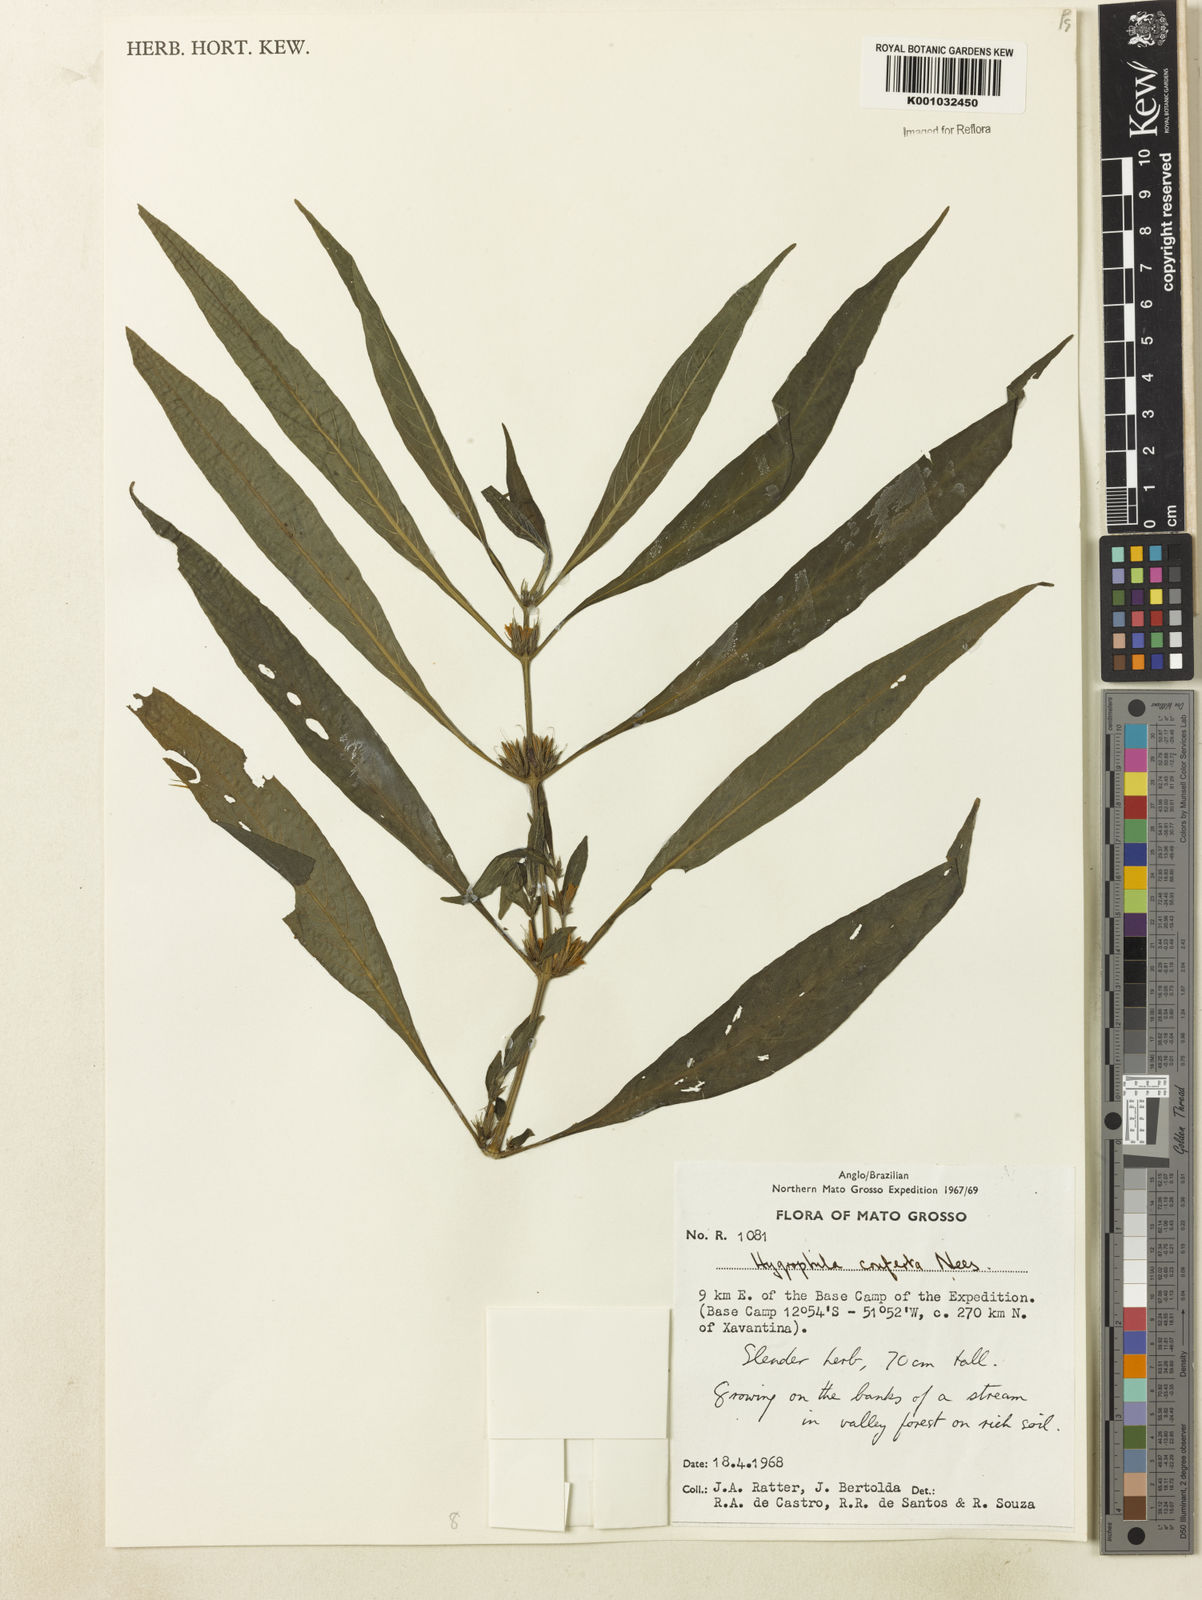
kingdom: Plantae
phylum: Tracheophyta
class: Magnoliopsida
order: Lamiales
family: Acanthaceae
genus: Hygrophila
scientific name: Hygrophila costata
